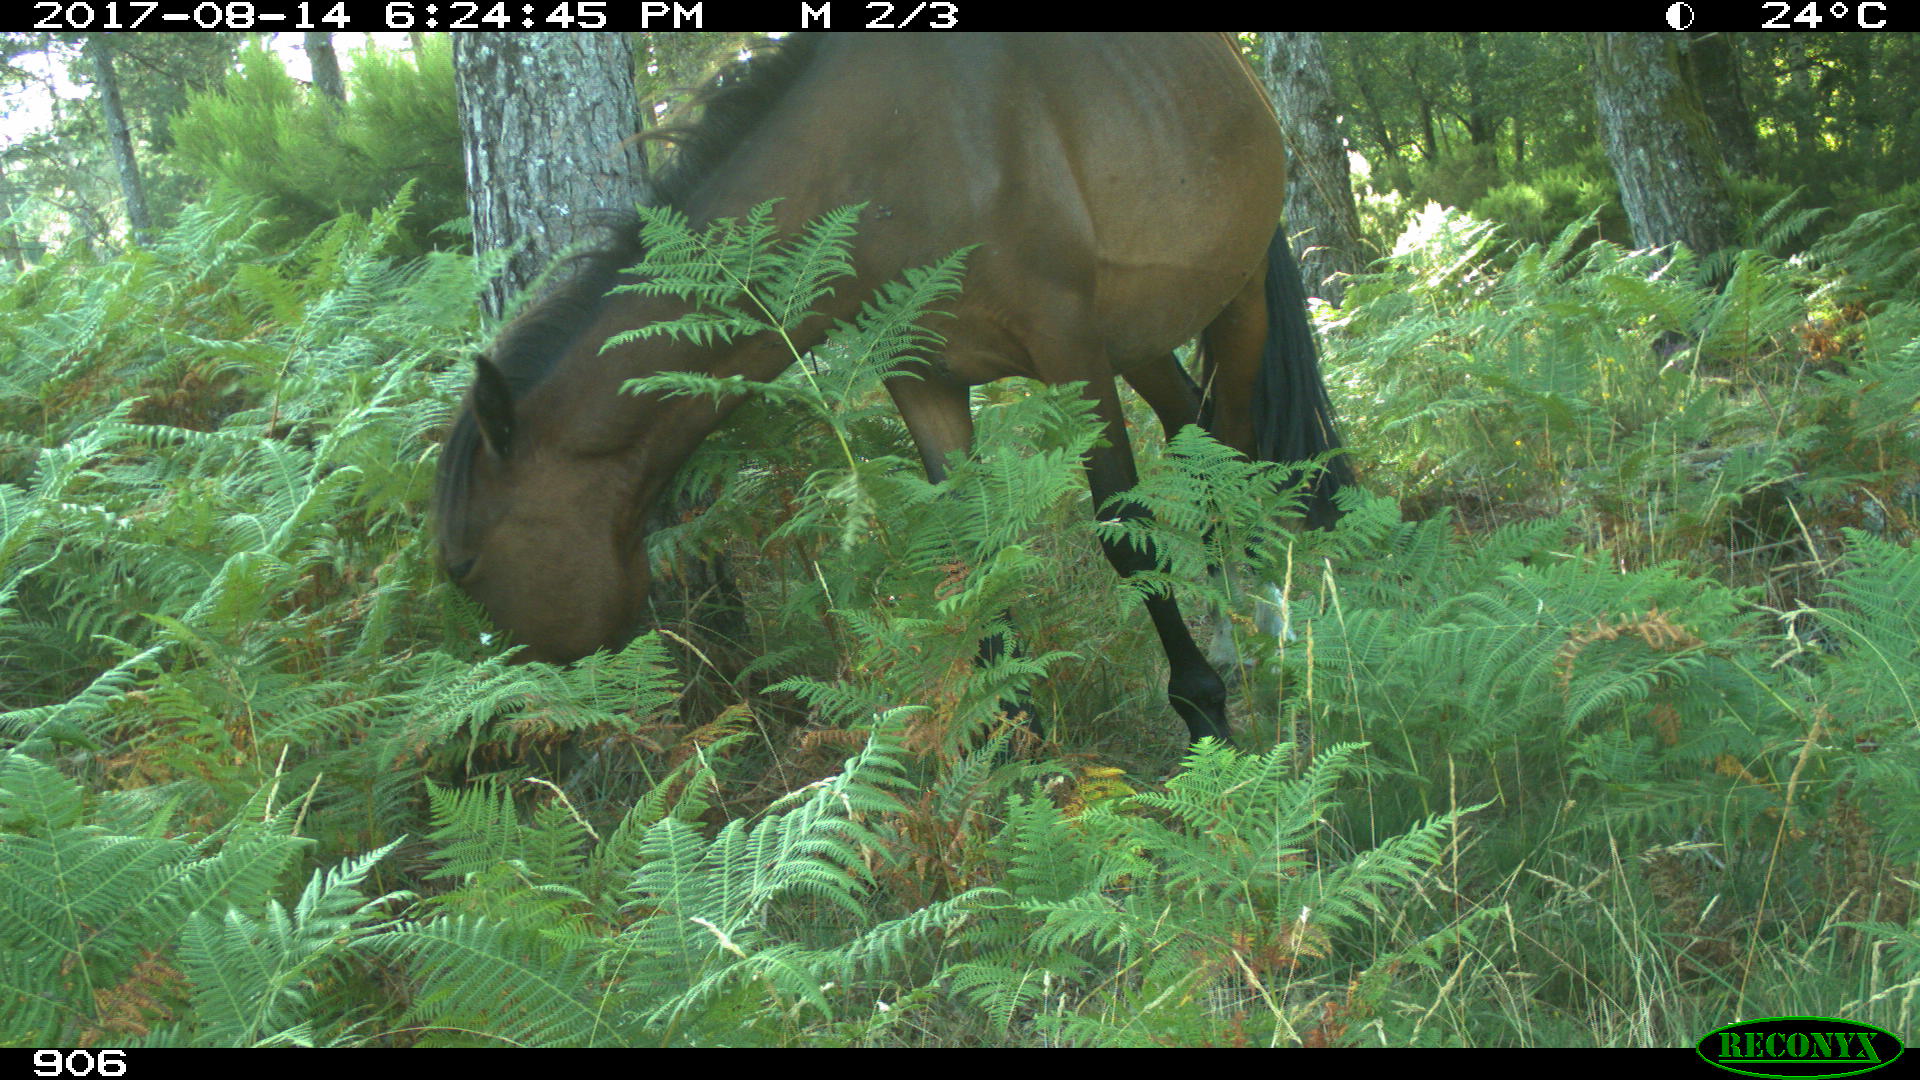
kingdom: Animalia
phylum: Chordata
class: Mammalia
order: Perissodactyla
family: Equidae
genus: Equus
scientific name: Equus caballus
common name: Horse
